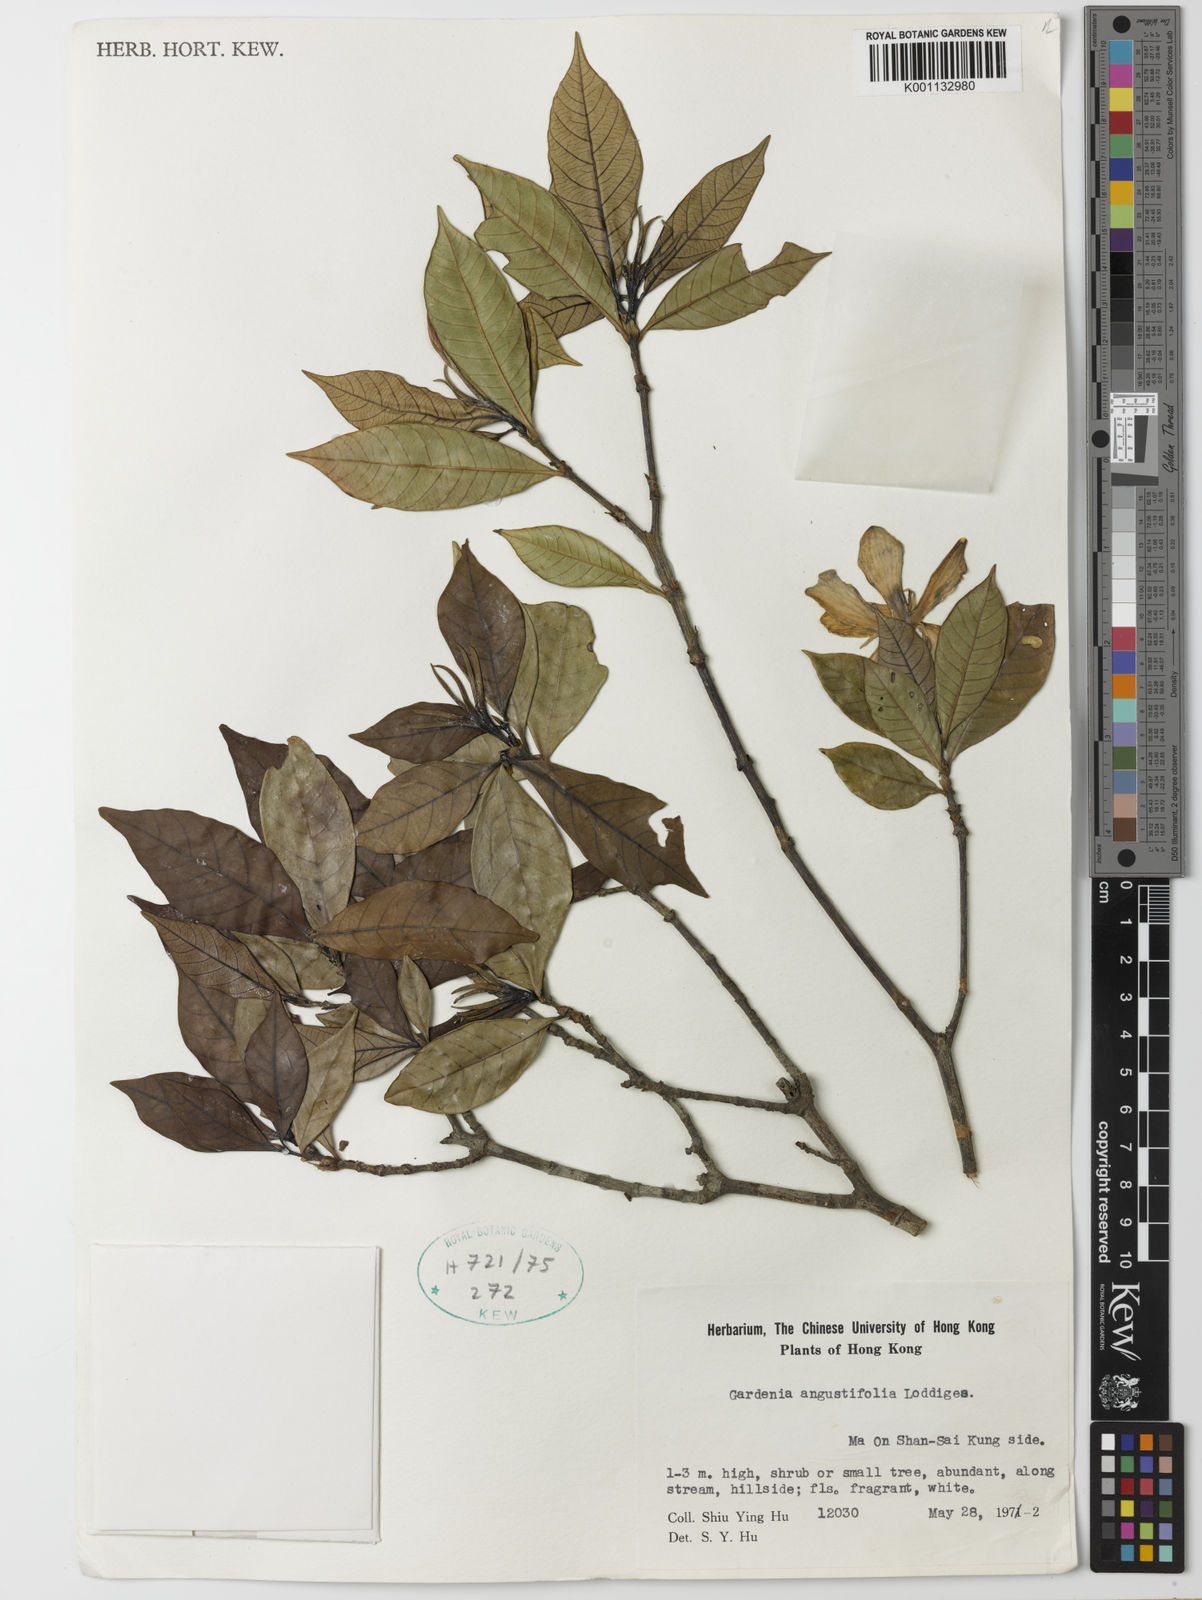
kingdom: Plantae
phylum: Tracheophyta
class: Magnoliopsida
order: Gentianales
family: Rubiaceae
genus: Gardenia
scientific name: Gardenia jasminoides
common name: Cape-jasmine
